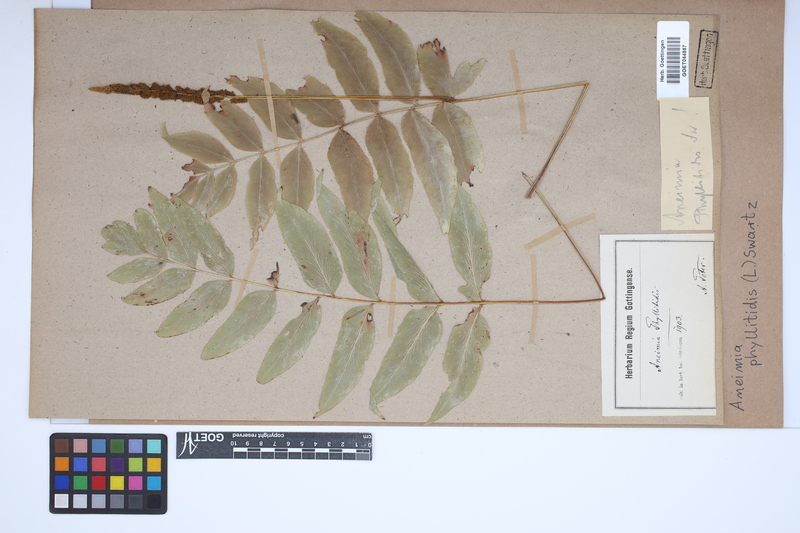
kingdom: Plantae
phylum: Tracheophyta
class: Polypodiopsida
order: Schizaeales
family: Anemiaceae
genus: Anemia
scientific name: Anemia phyllitidis
